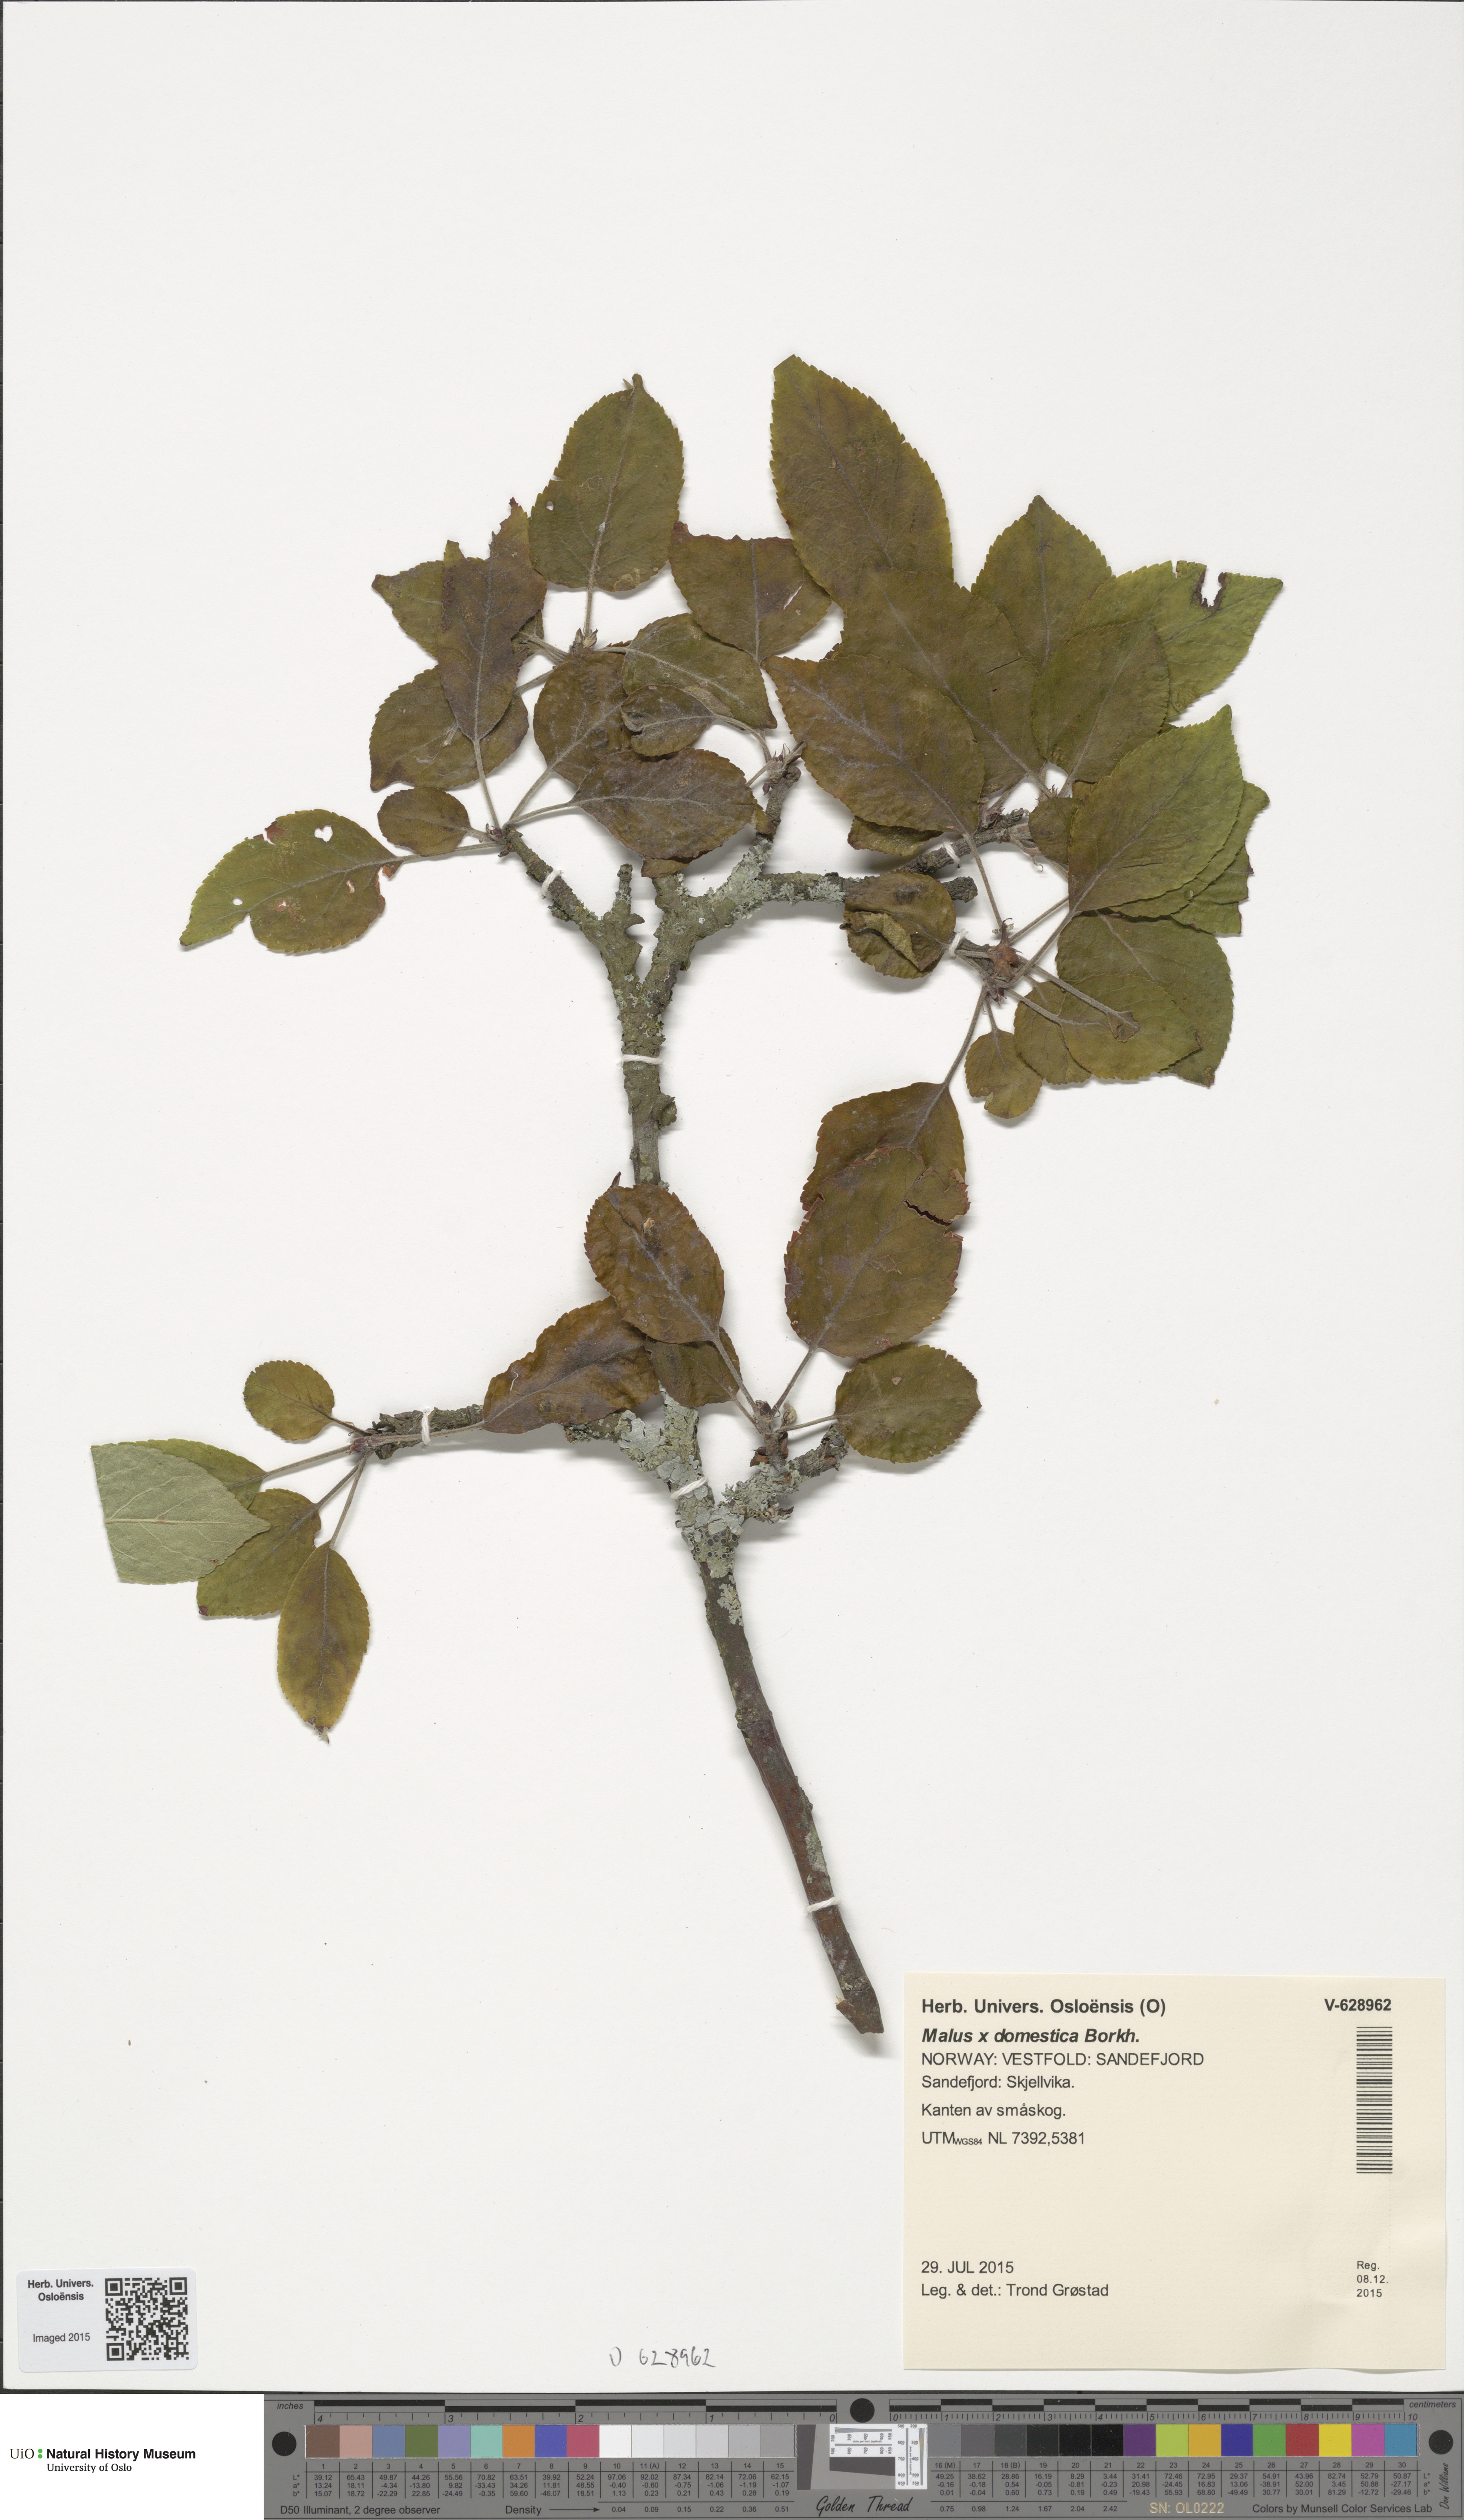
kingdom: Plantae
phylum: Tracheophyta
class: Magnoliopsida
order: Rosales
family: Rosaceae
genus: Malus
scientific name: Malus domestica
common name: Apple
